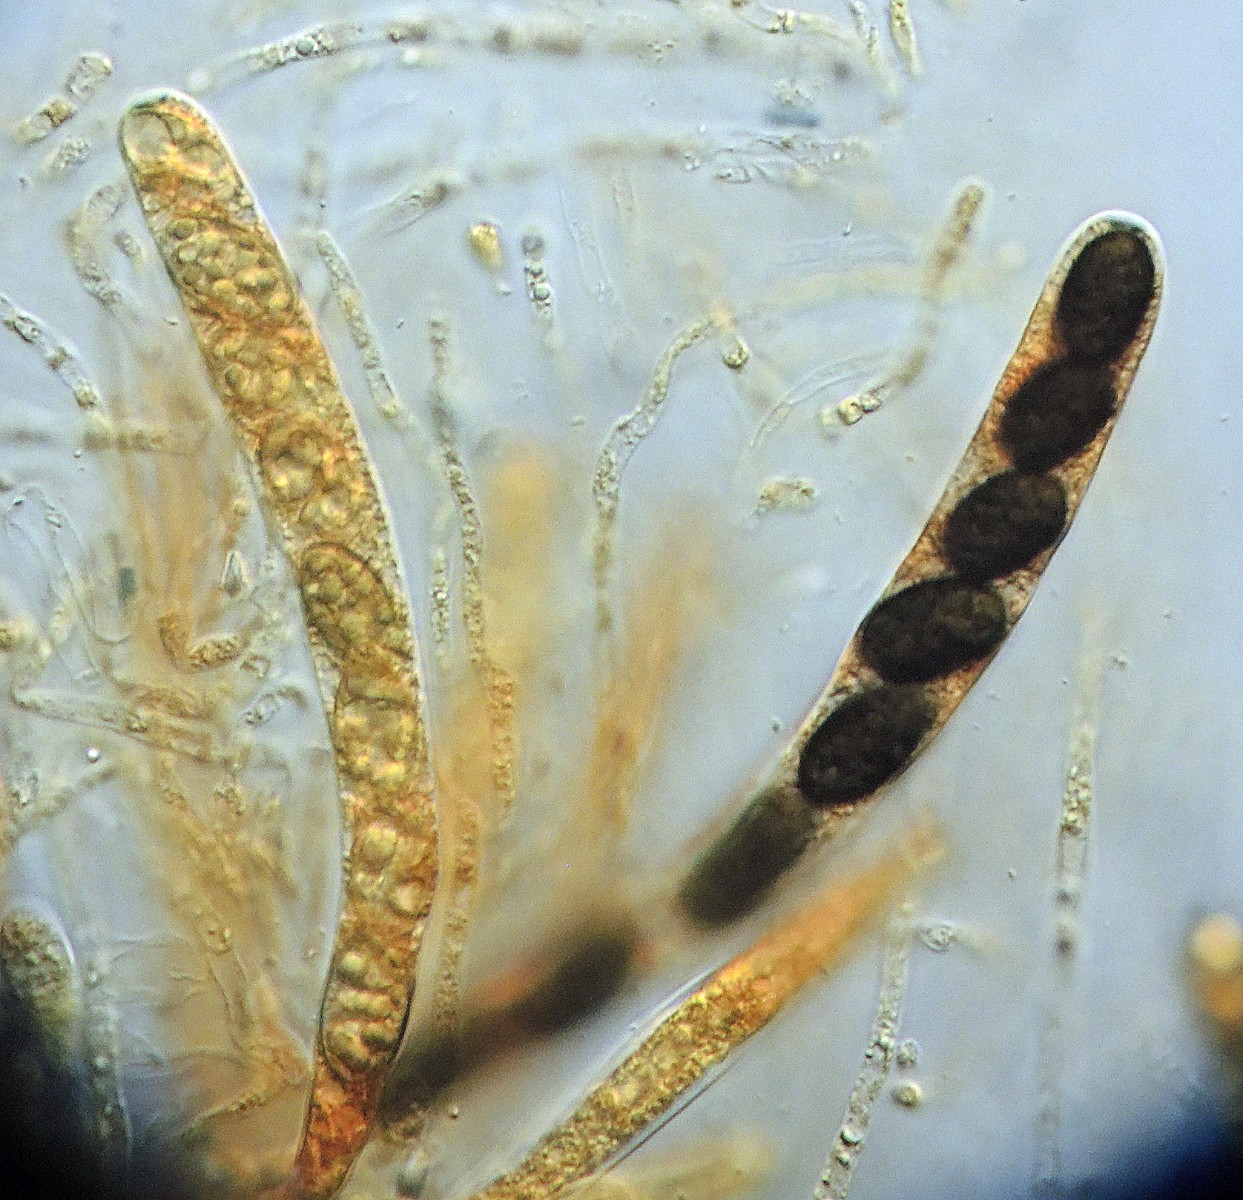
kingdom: Fungi
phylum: Ascomycota
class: Sordariomycetes
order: Amphisphaeriales
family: Amphisphaeriaceae
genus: Amphisphaerella
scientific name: Amphisphaerella xylostei
